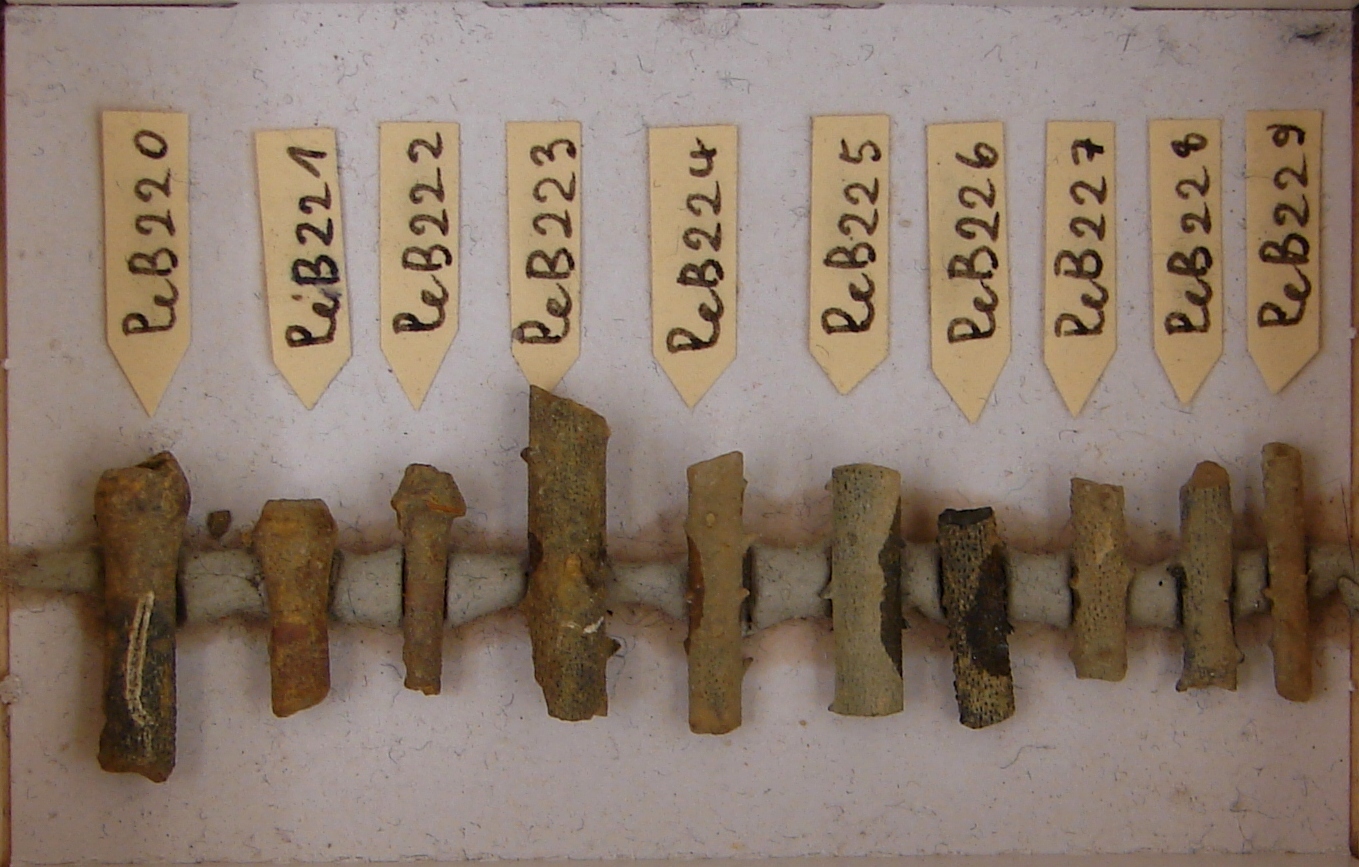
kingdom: Animalia
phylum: Echinodermata
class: Echinoidea
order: Cidaroida
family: Polycidaridae
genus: Polycidaris
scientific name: Polycidaris
